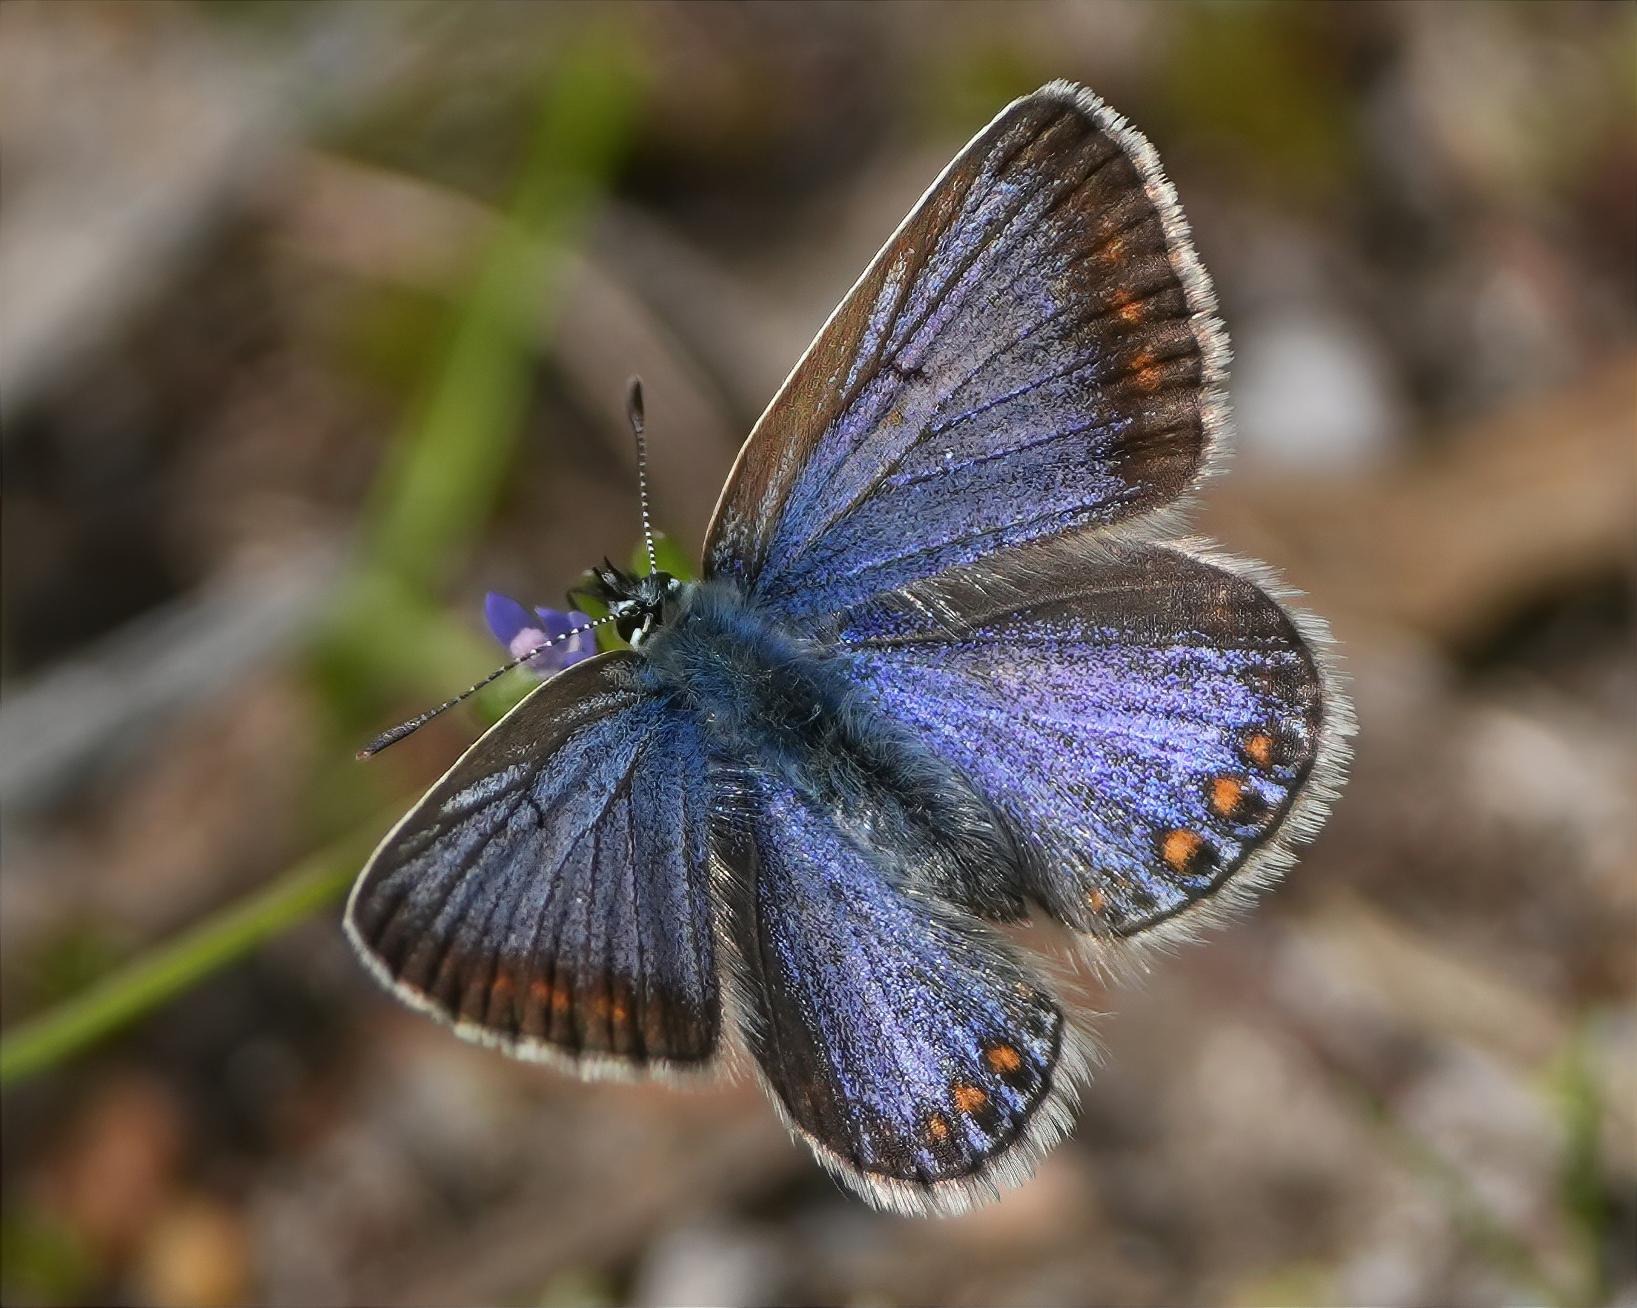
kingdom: Animalia
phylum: Arthropoda
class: Insecta
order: Lepidoptera
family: Lycaenidae
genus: Polyommatus
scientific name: Polyommatus icarus
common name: Almindelig blåfugl
